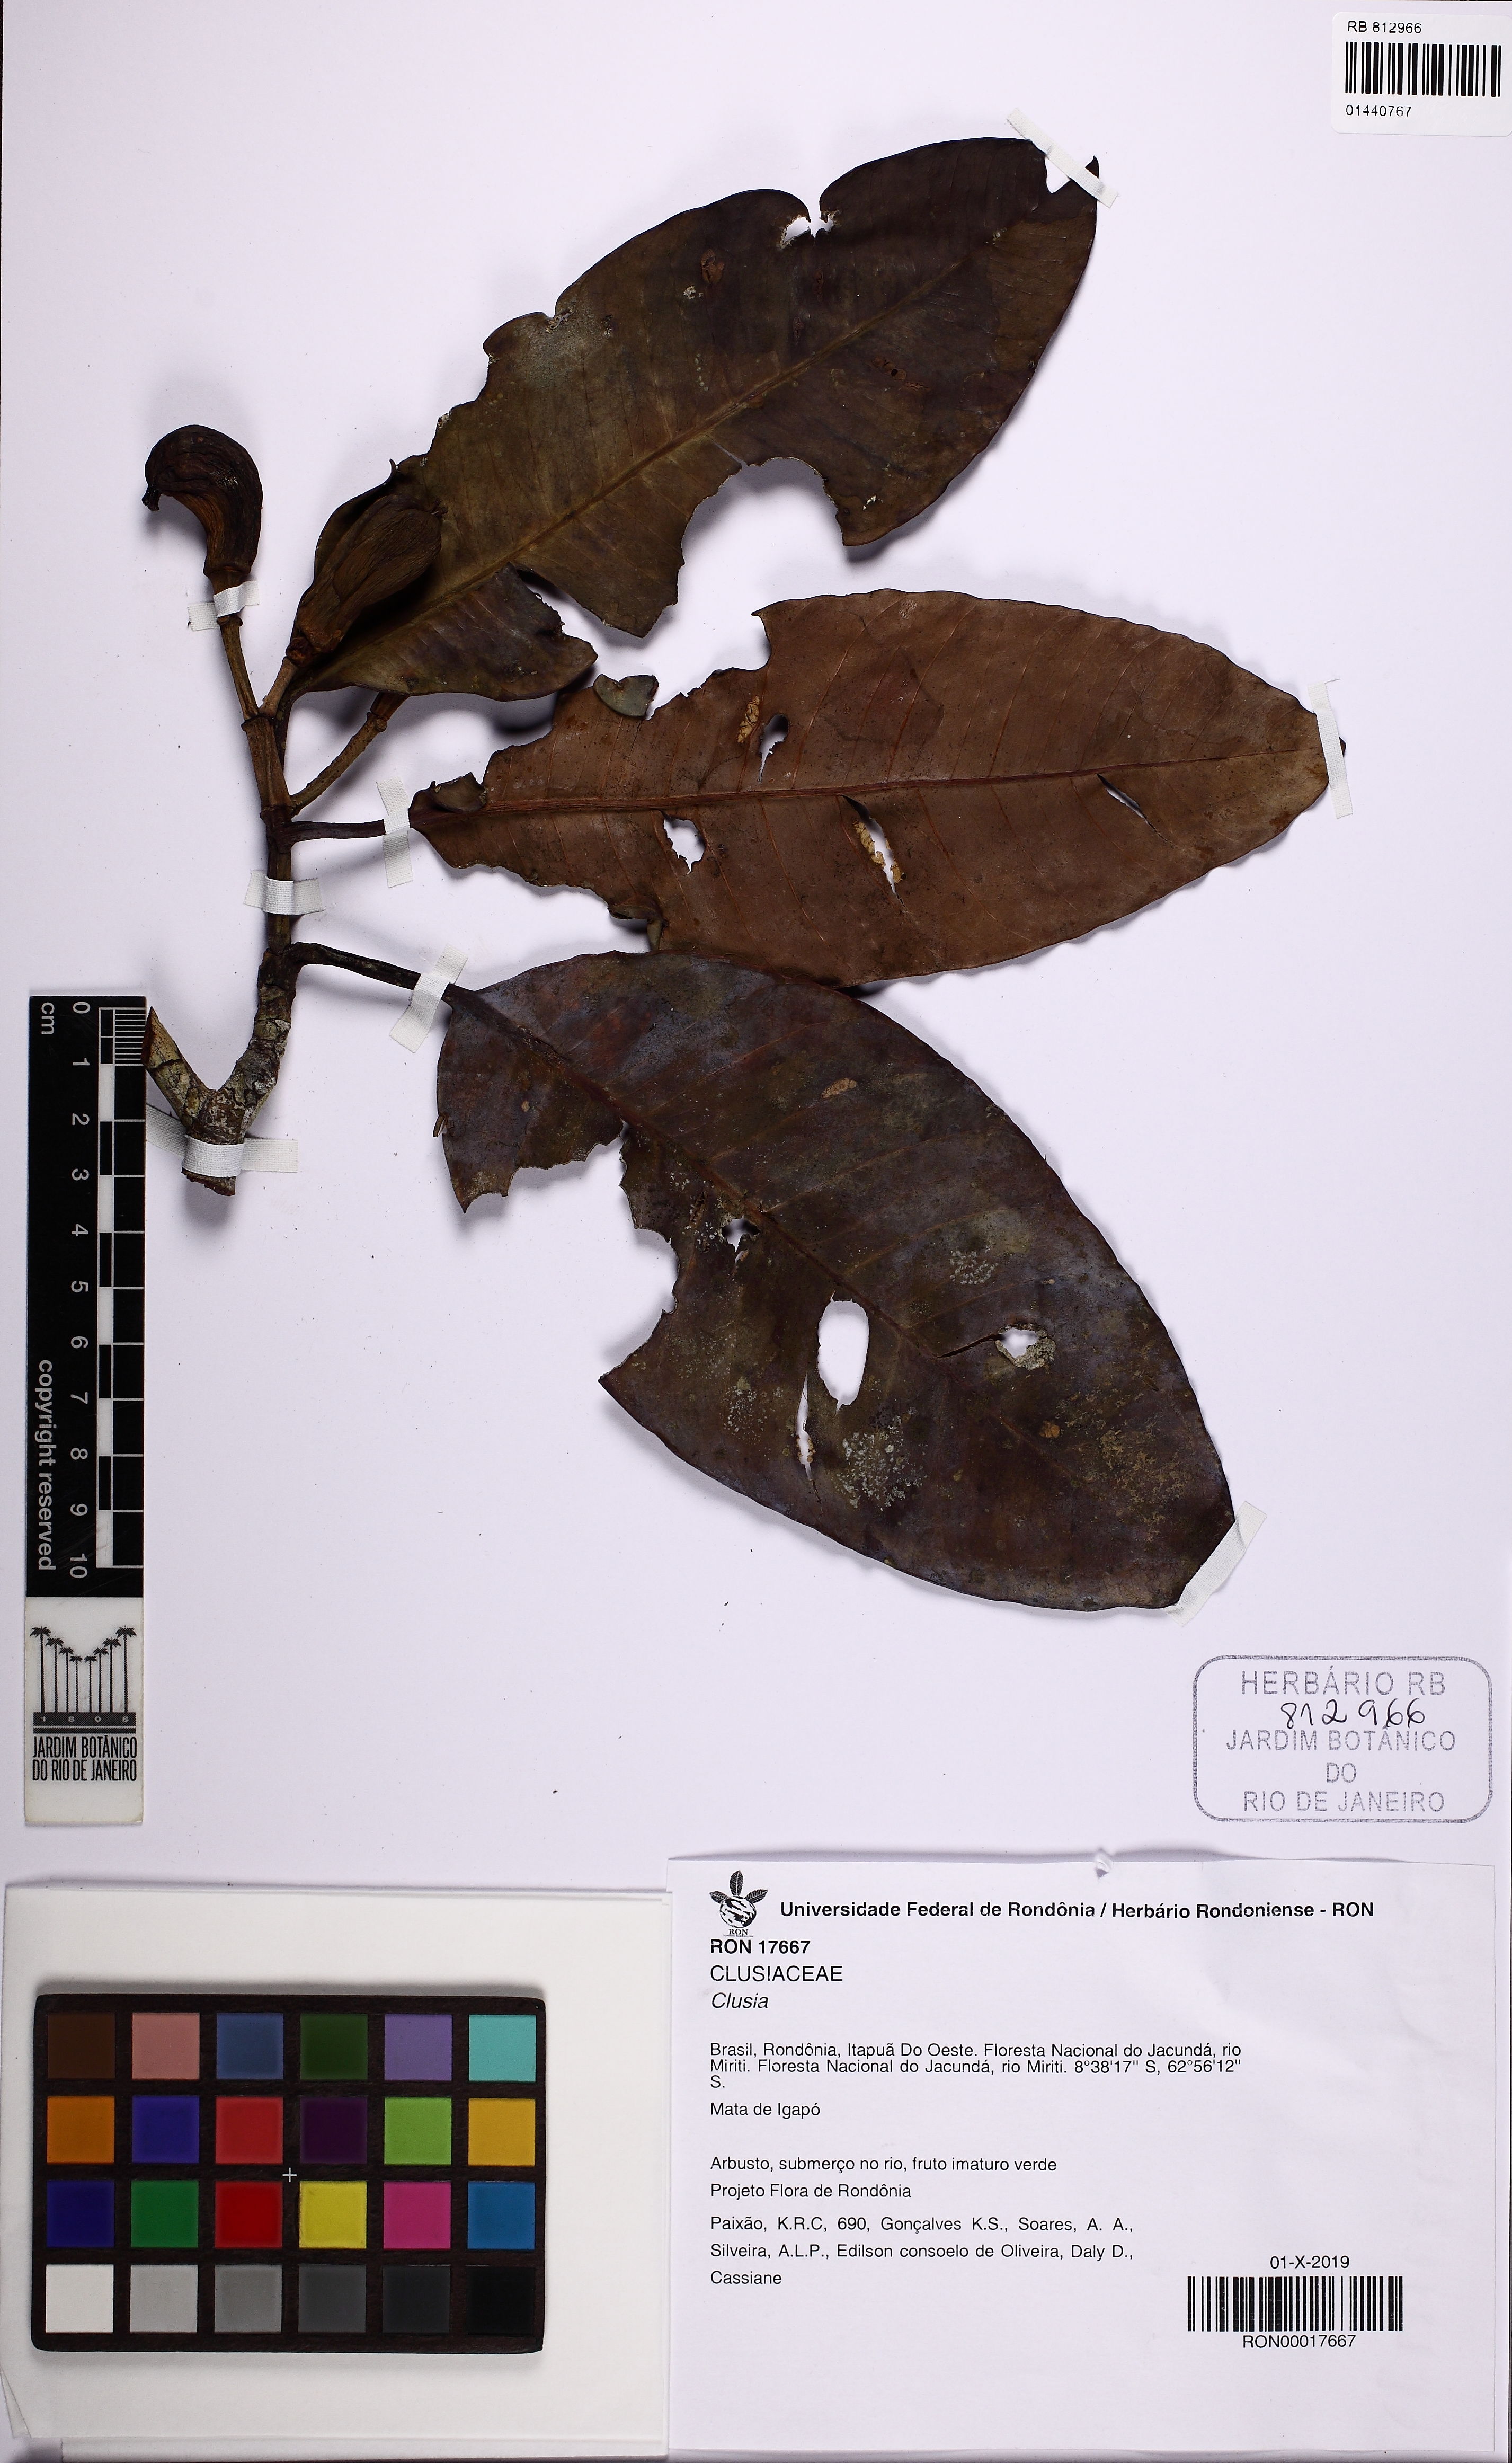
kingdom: Plantae
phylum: Tracheophyta
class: Magnoliopsida
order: Malpighiales
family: Clusiaceae
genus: Clusia
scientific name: Clusia
